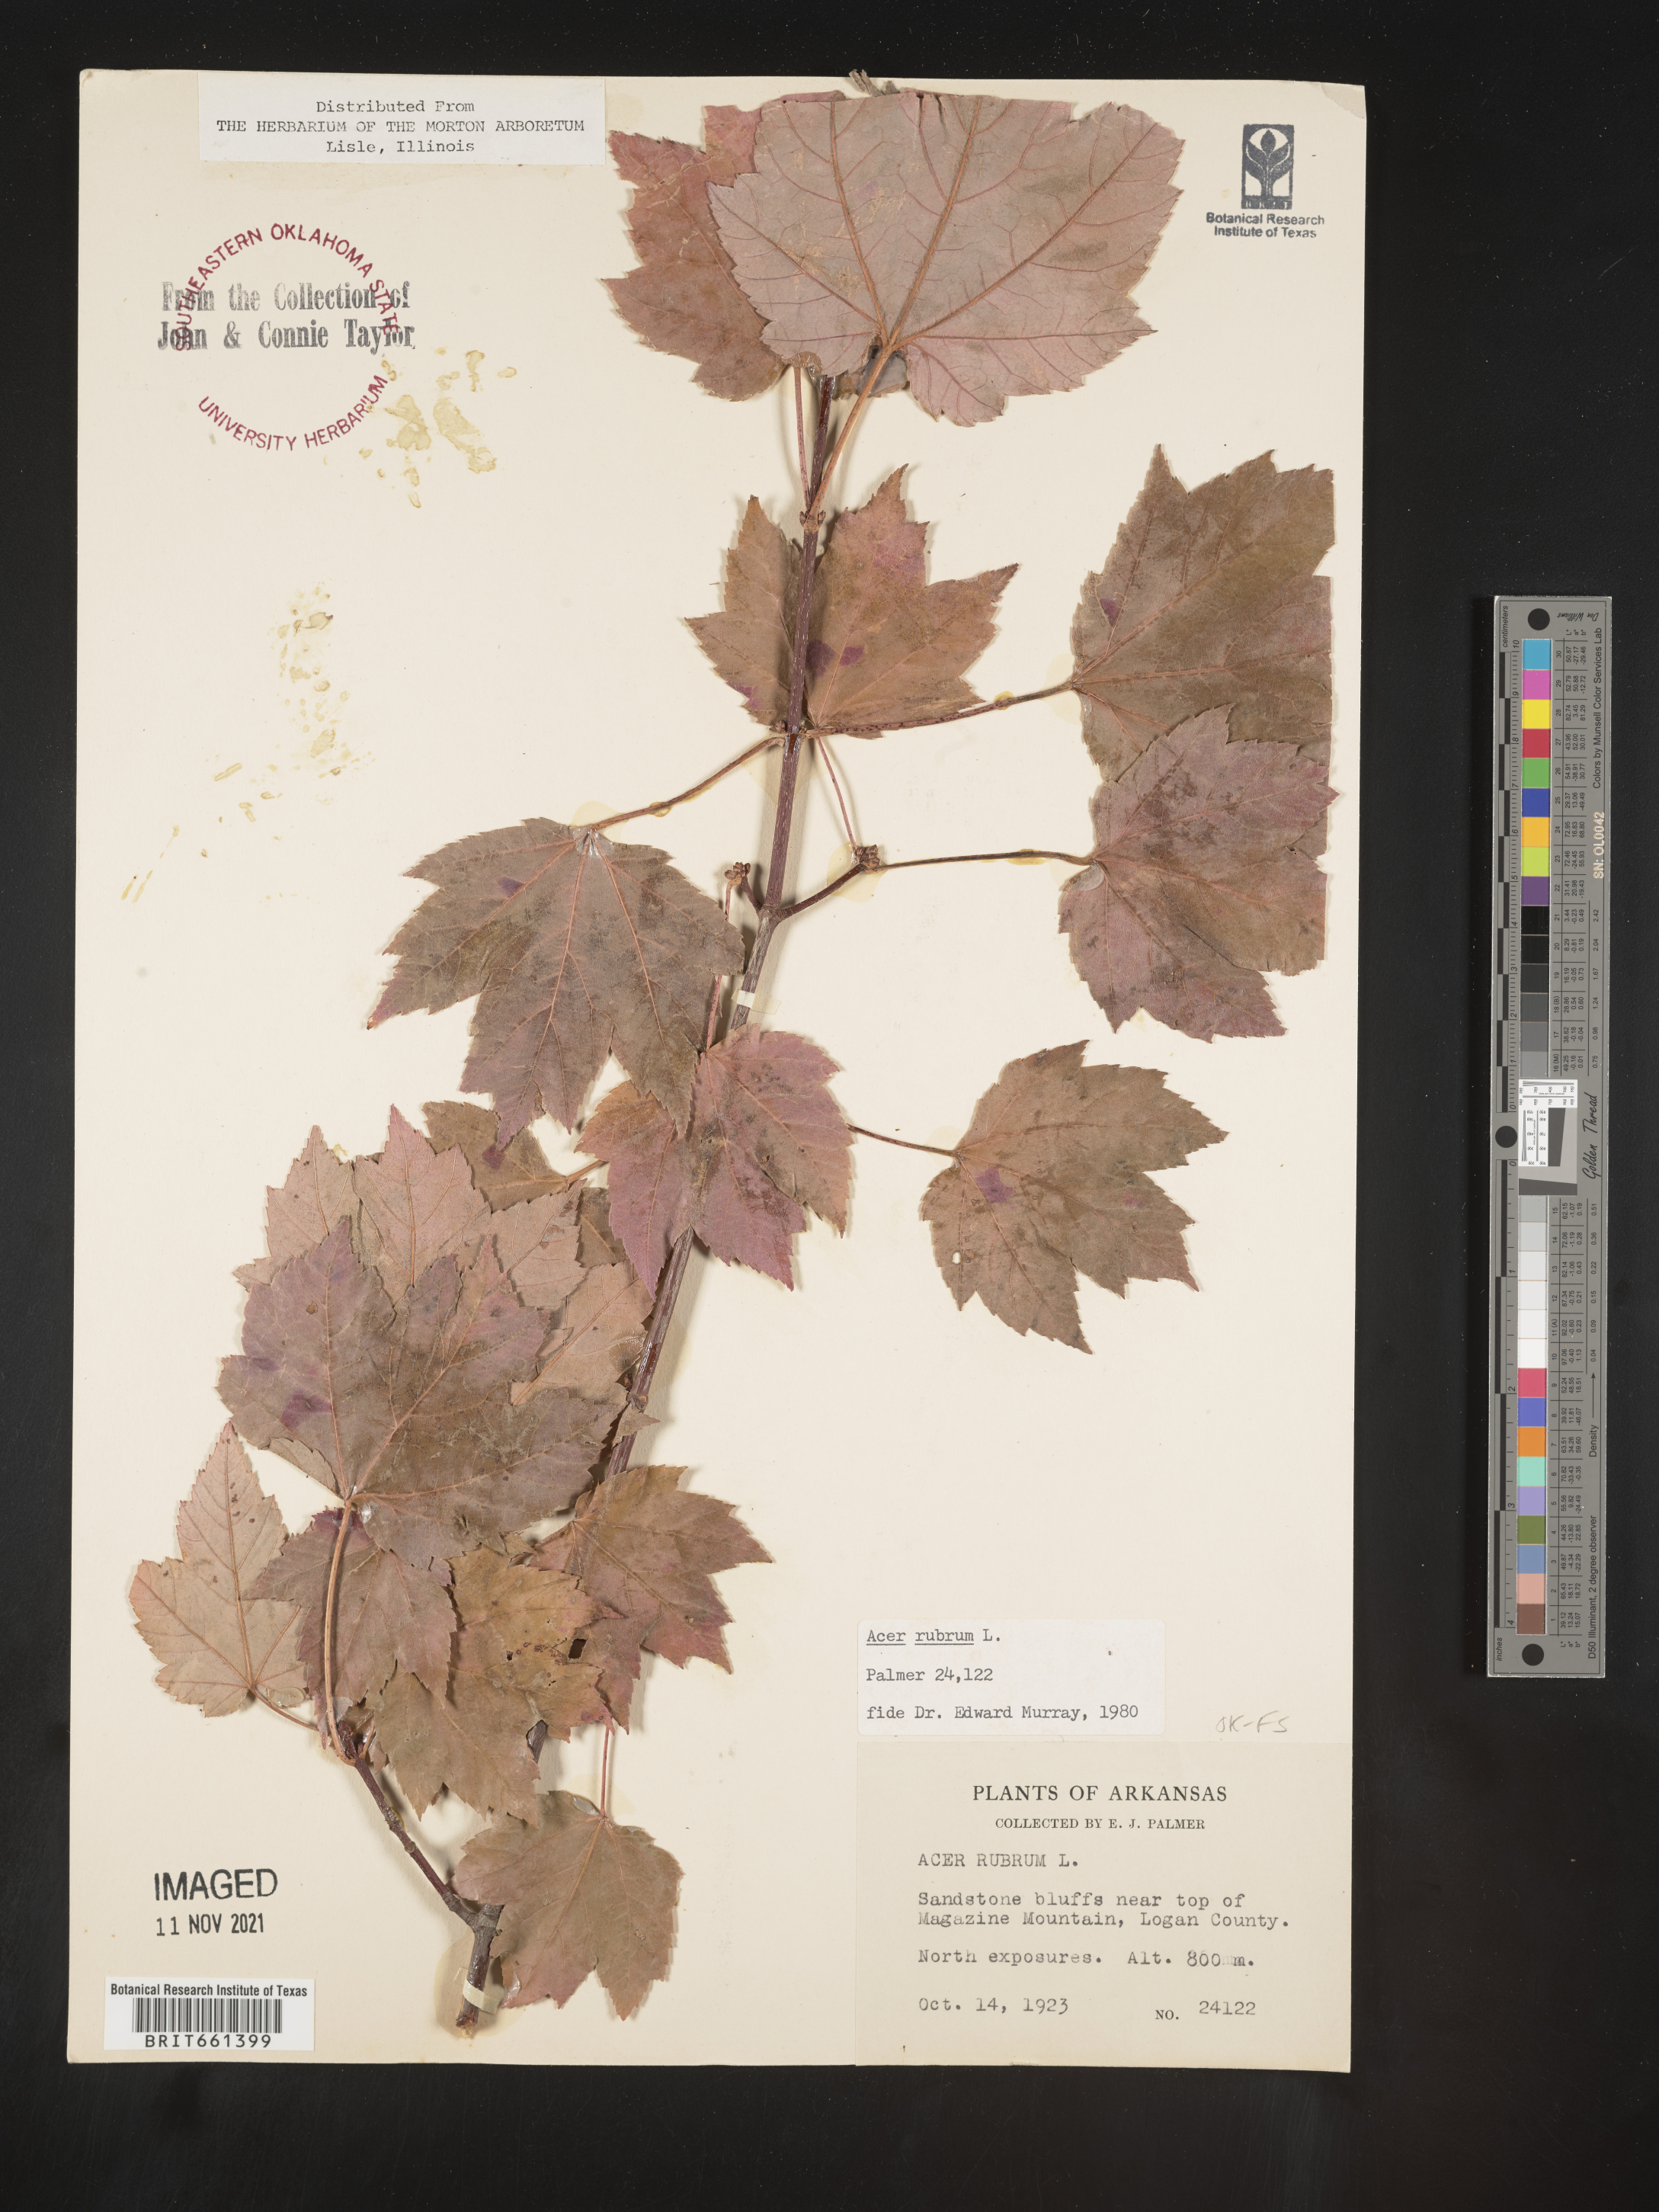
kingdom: Plantae
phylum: Tracheophyta
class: Magnoliopsida
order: Sapindales
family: Sapindaceae
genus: Acer
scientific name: Acer rubrum
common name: Red maple
